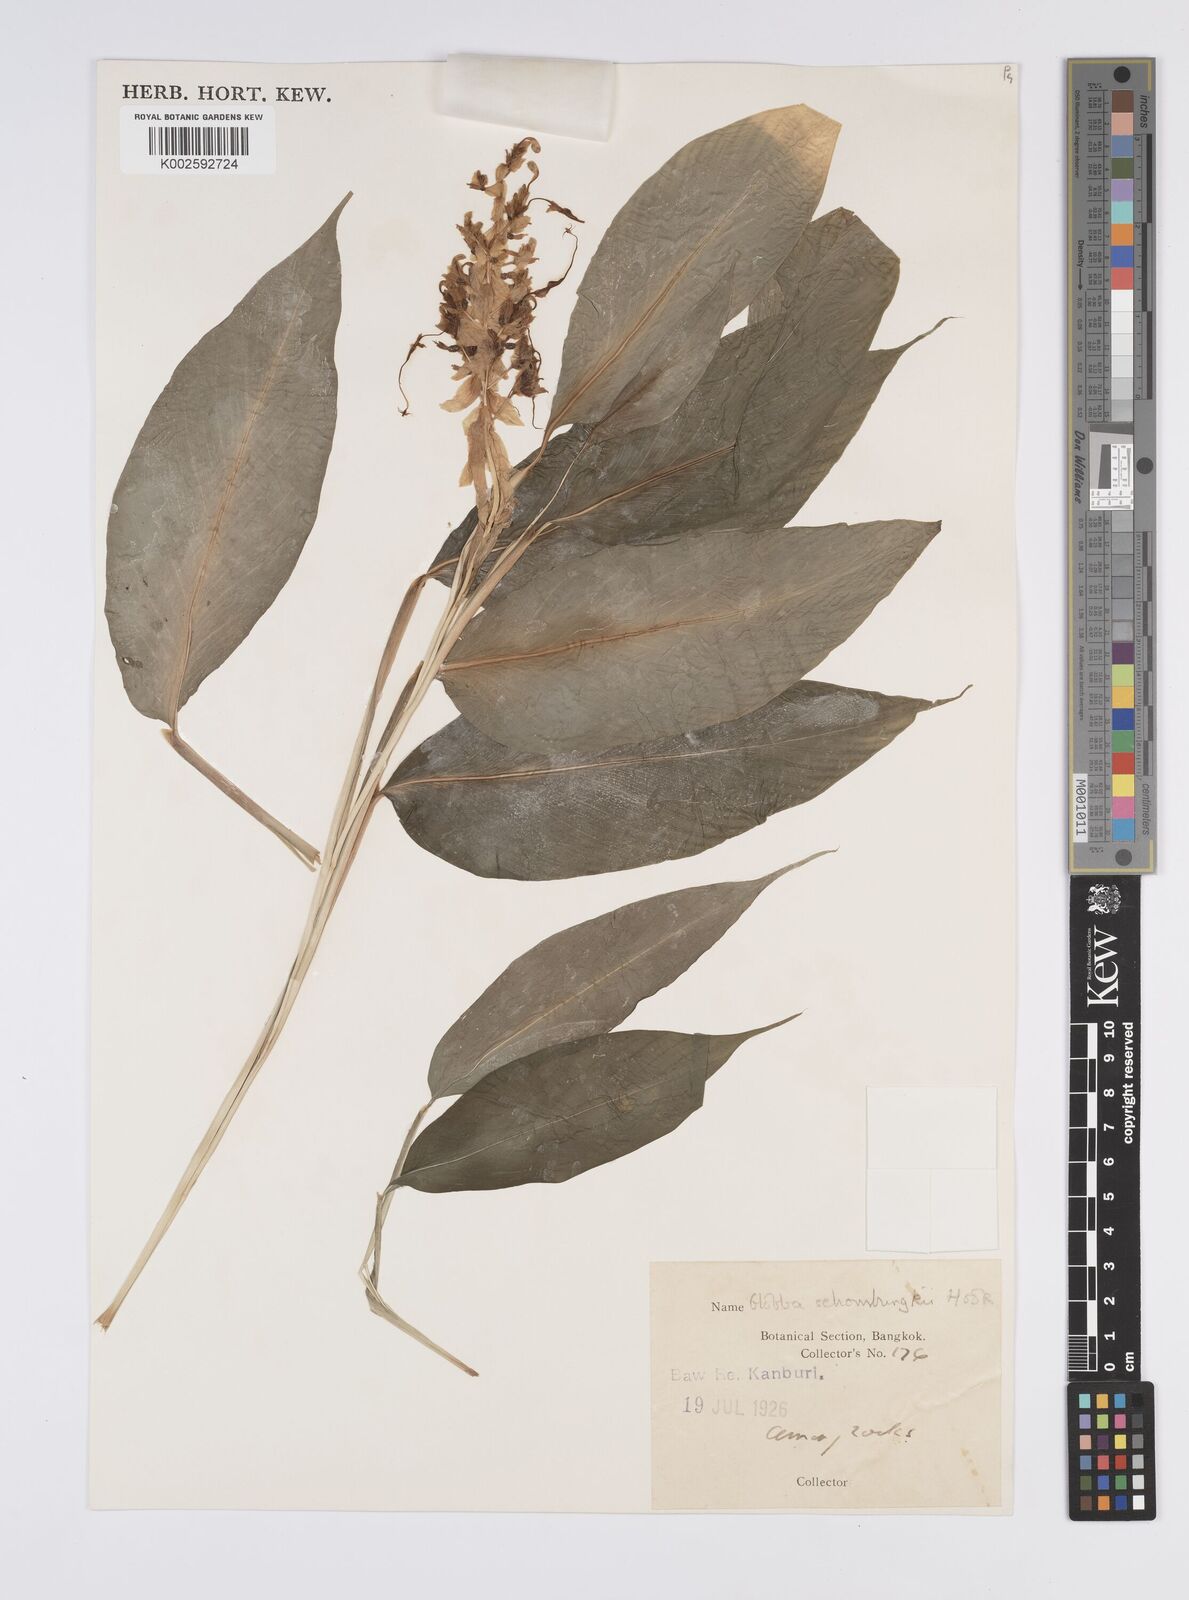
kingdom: Plantae
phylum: Tracheophyta
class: Liliopsida
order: Zingiberales
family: Zingiberaceae
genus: Globba
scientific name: Globba schomburgkii
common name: Dancing girl ginger
